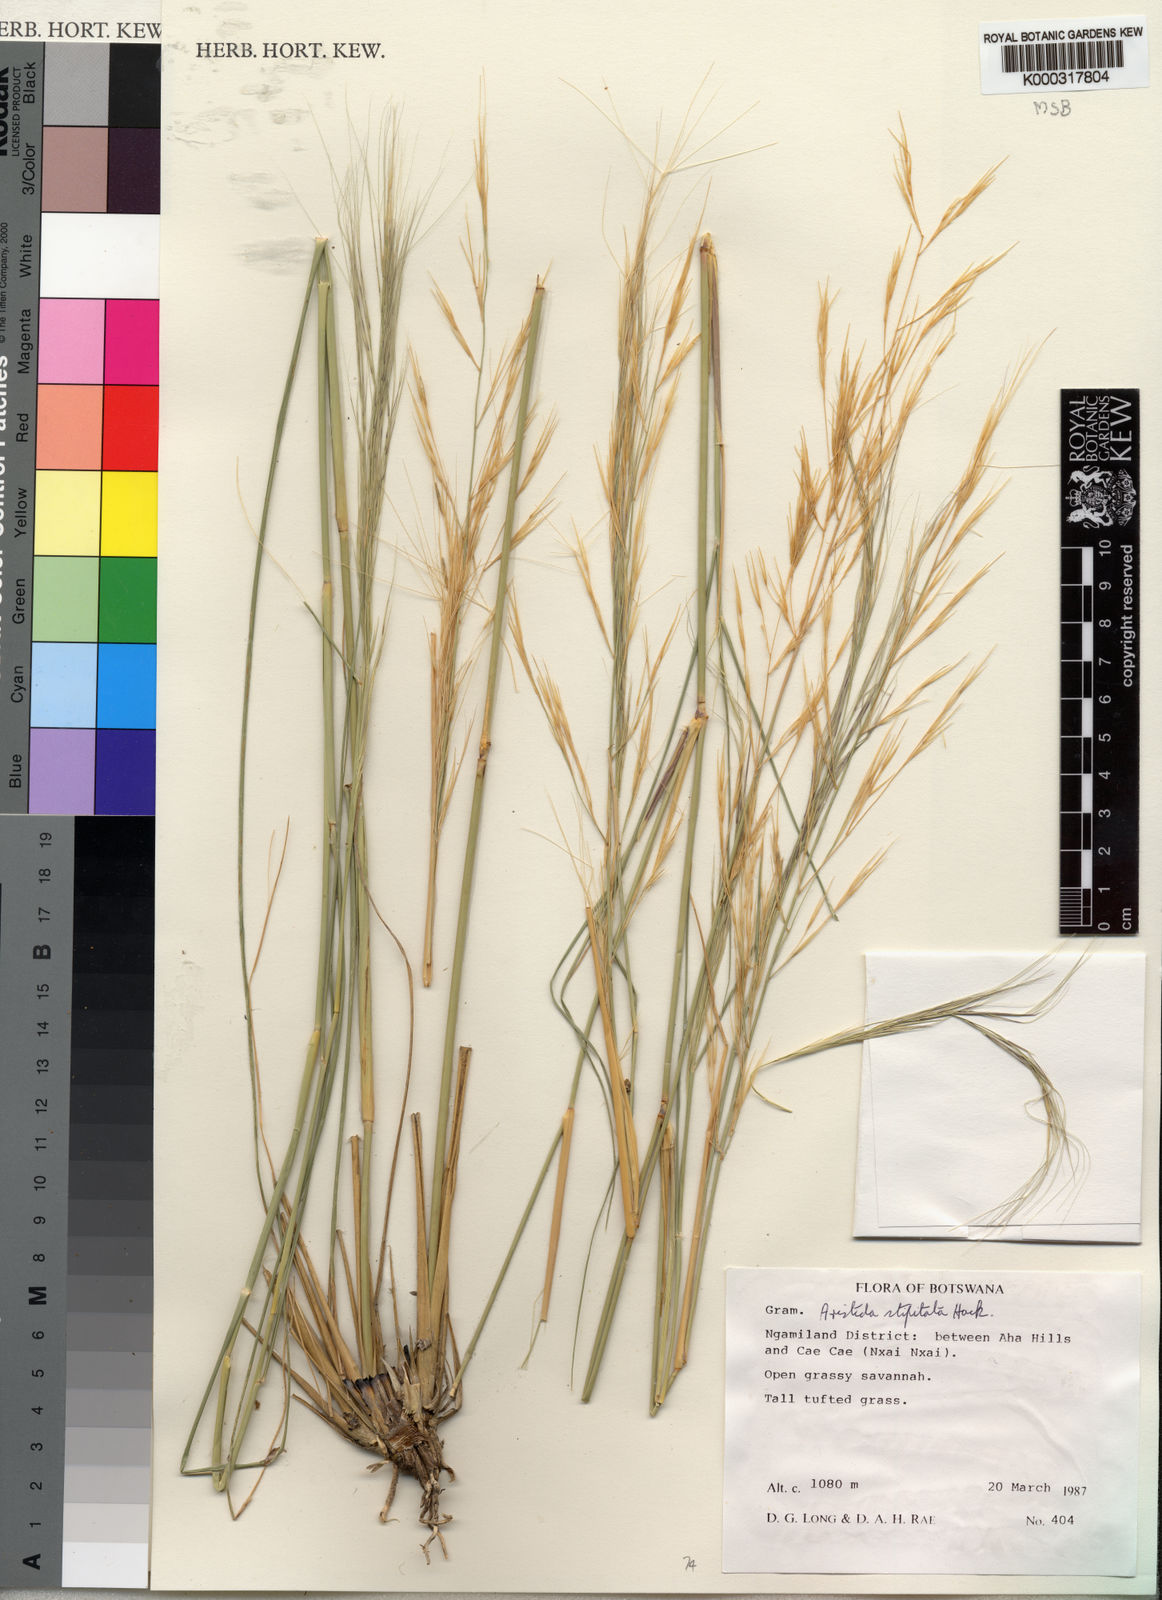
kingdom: Plantae
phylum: Tracheophyta
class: Liliopsida
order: Poales
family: Poaceae
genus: Aristida
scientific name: Aristida stipitata
